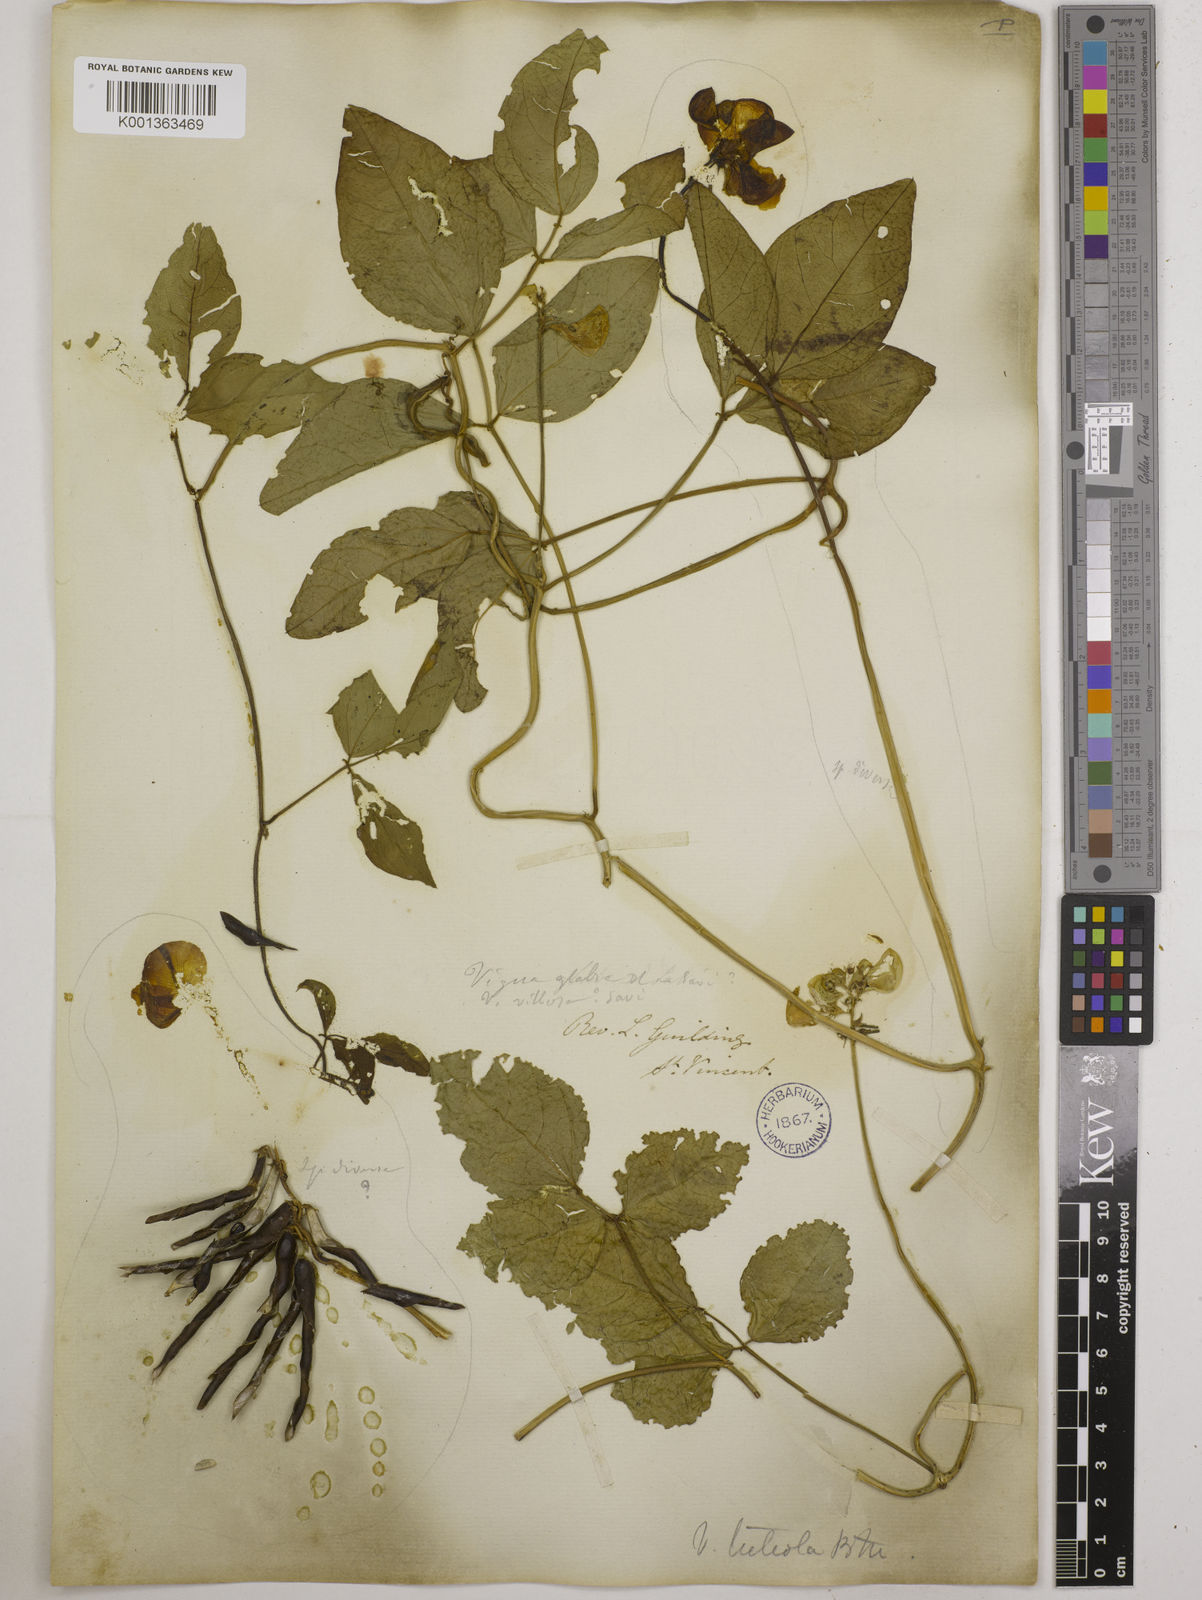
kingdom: Plantae
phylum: Tracheophyta
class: Magnoliopsida
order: Fabales
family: Fabaceae
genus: Vigna
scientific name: Vigna luteola
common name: Hairypod cowpea
